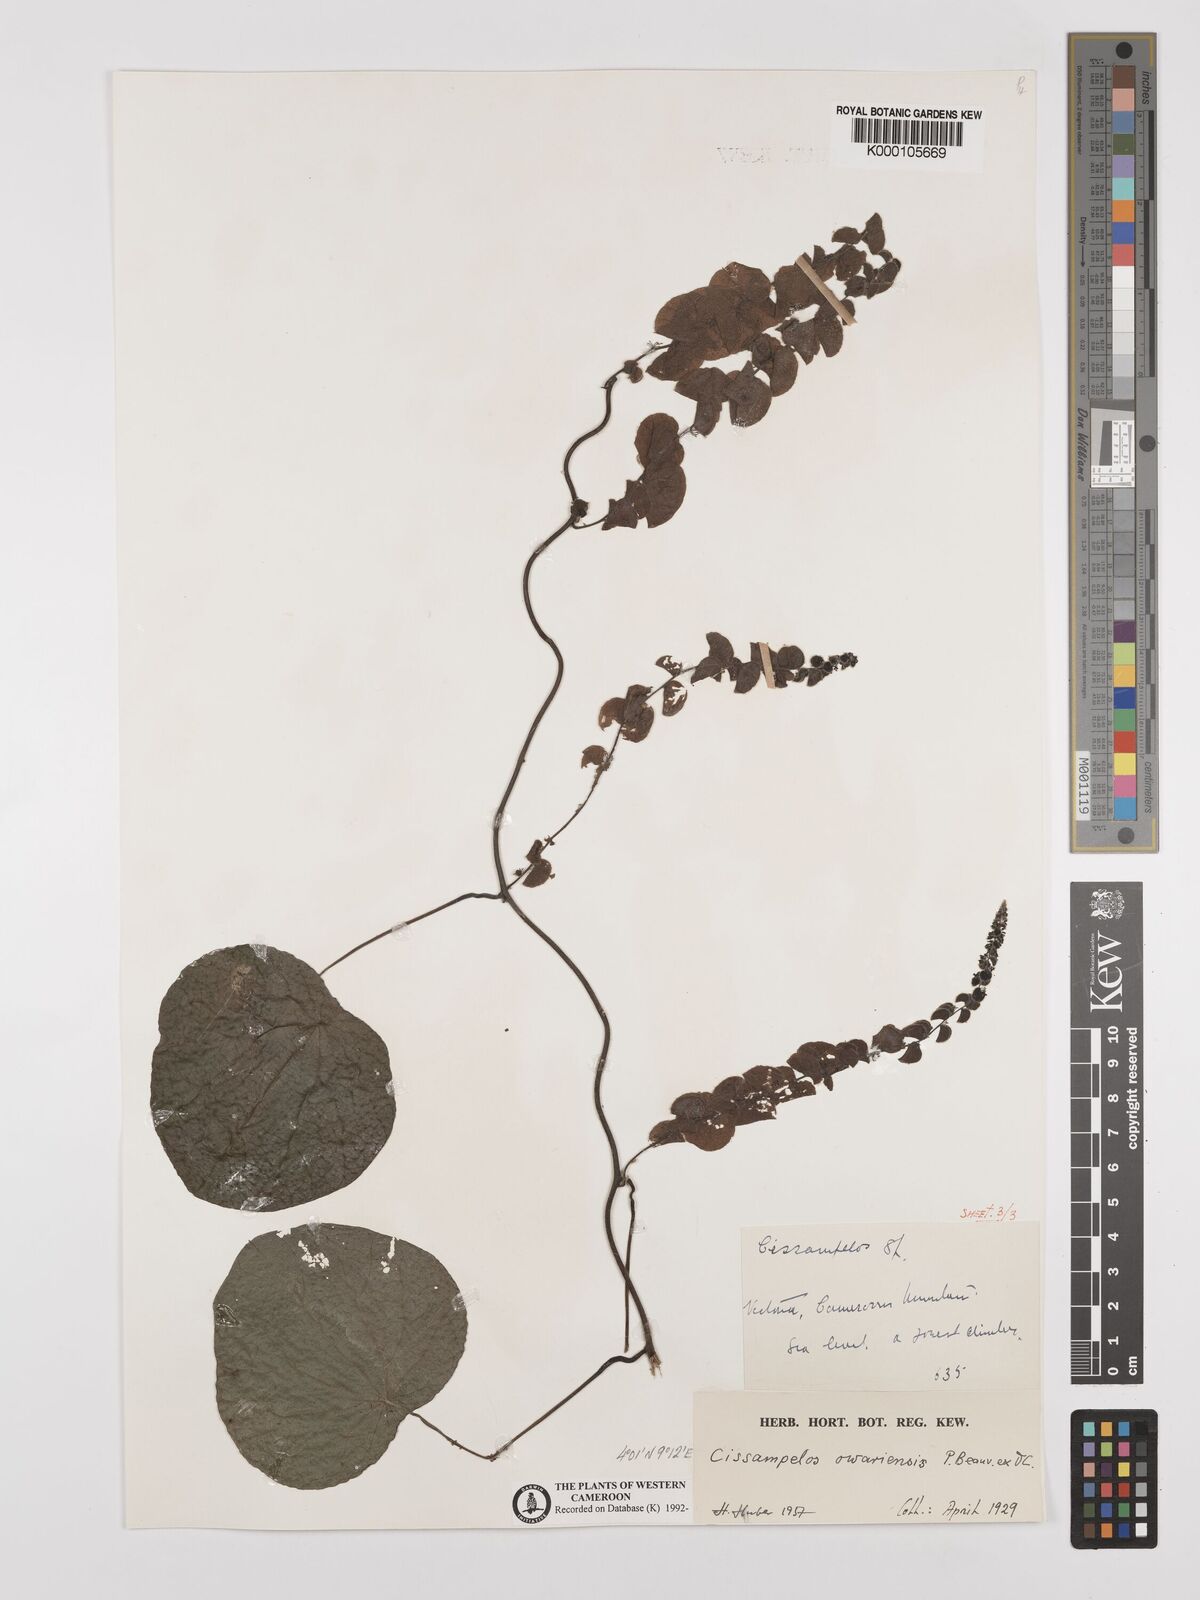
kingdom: Plantae
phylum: Tracheophyta
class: Magnoliopsida
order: Ranunculales
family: Menispermaceae
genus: Cissampelos
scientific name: Cissampelos owariensis
